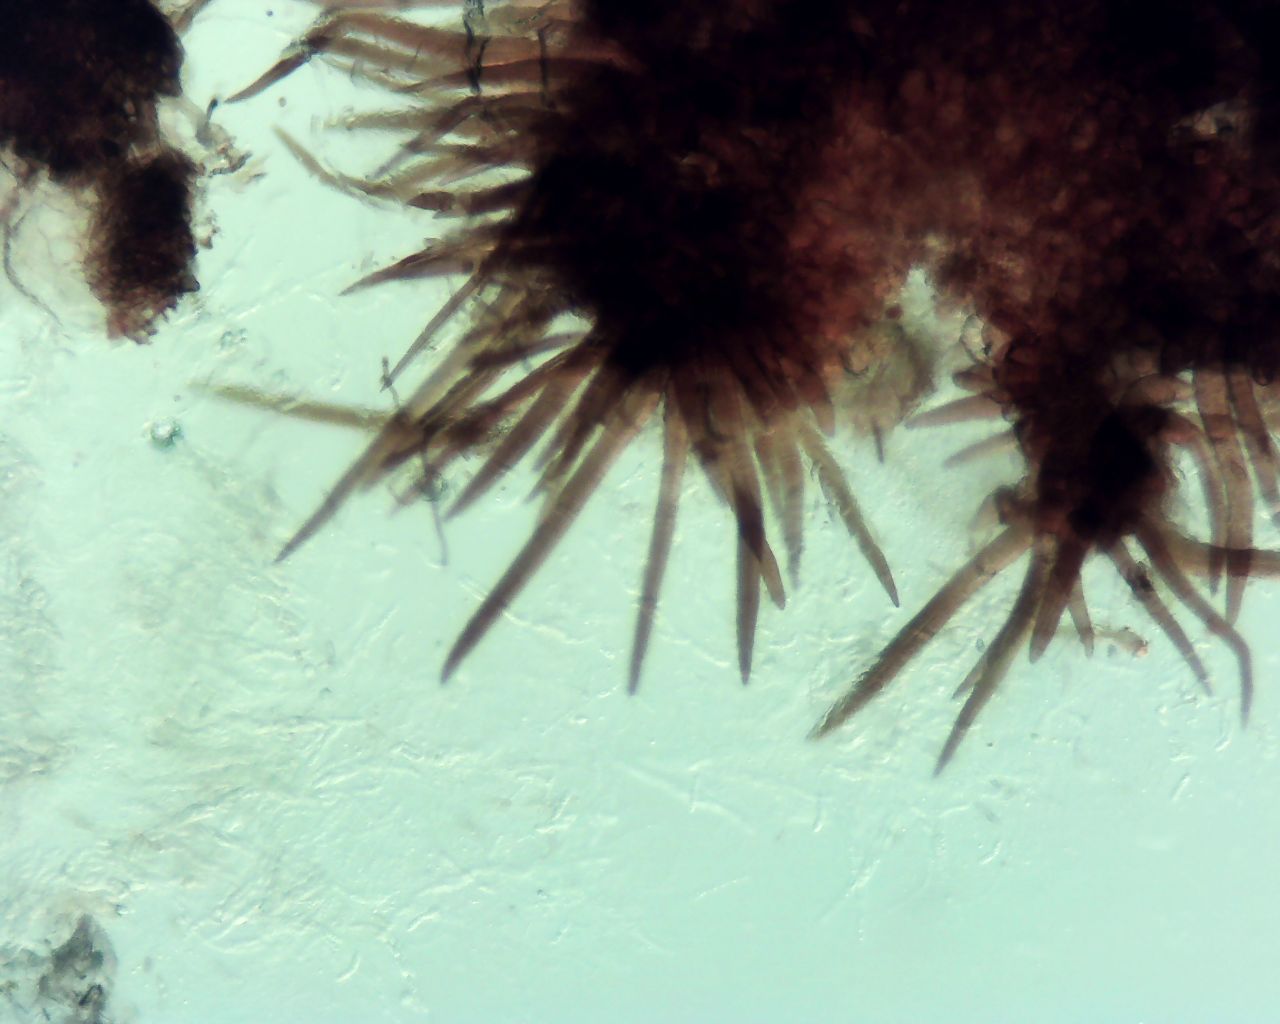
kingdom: Fungi
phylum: Ascomycota
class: Sordariomycetes
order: Sordariales
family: Helminthosphaeriaceae
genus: Echinosphaeria
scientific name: Echinosphaeria canescens
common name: brun børstekerne
